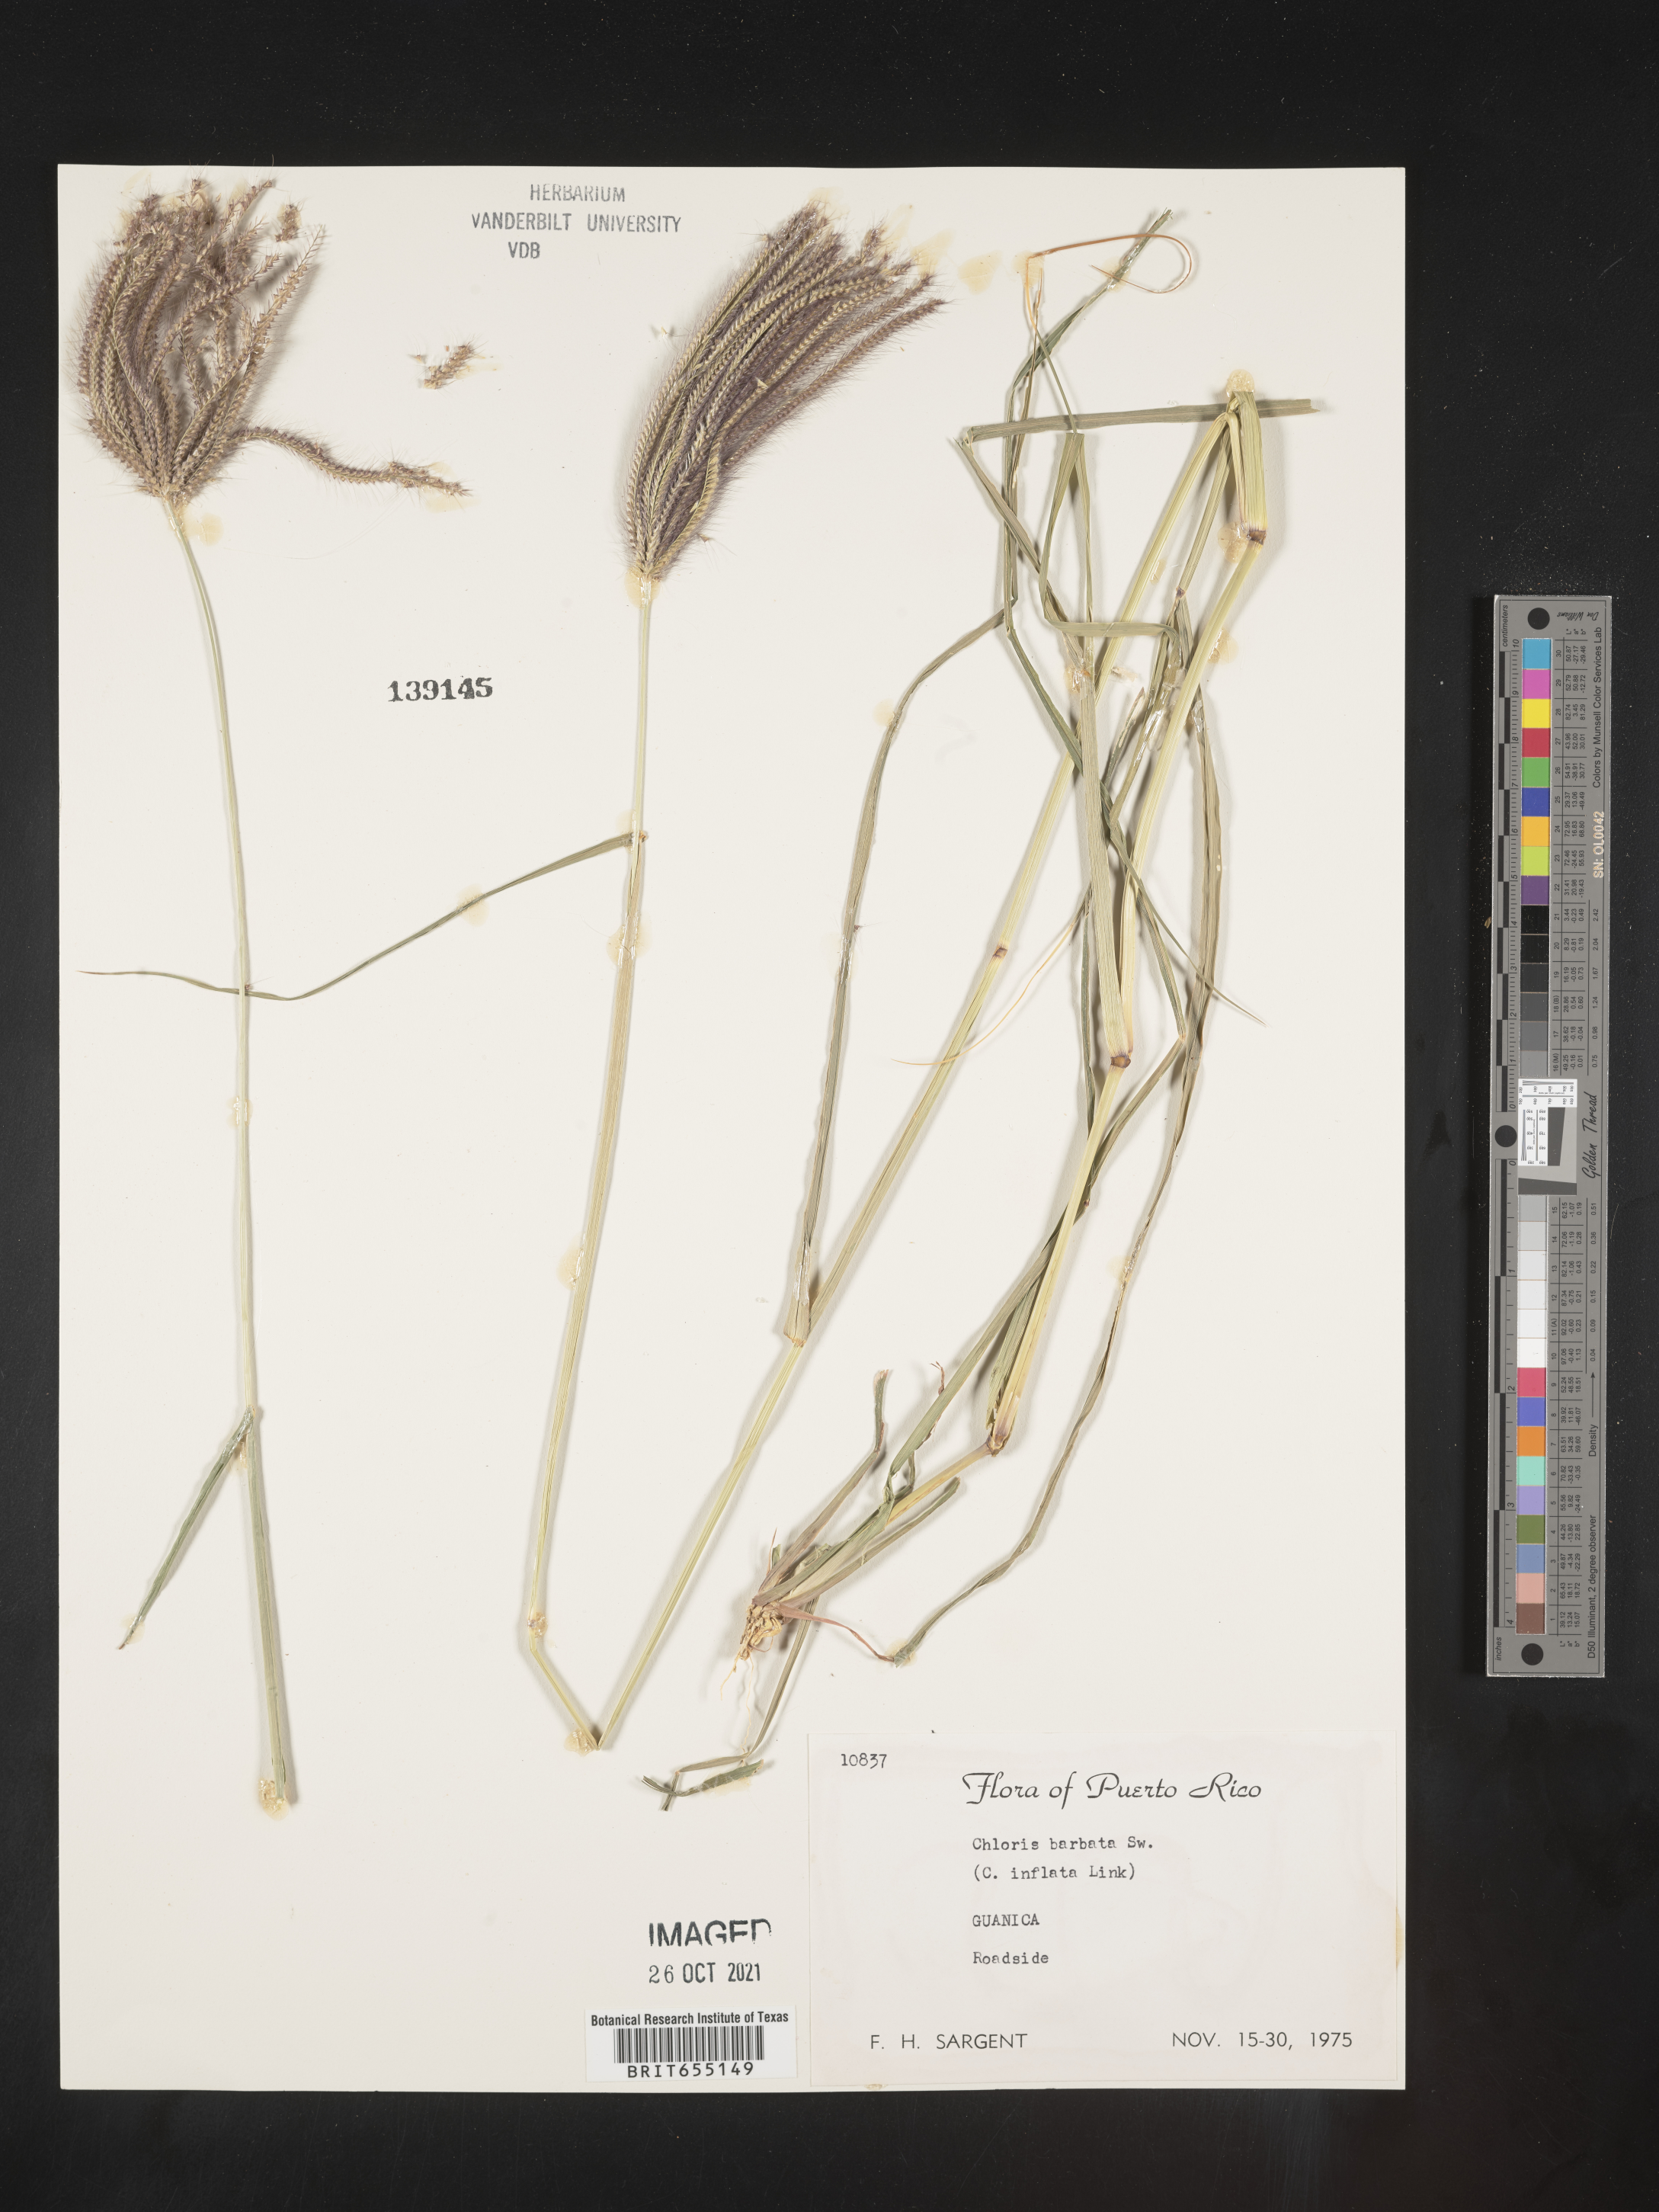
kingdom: Plantae
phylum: Tracheophyta
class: Liliopsida
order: Poales
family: Poaceae
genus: Chloris
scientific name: Chloris
